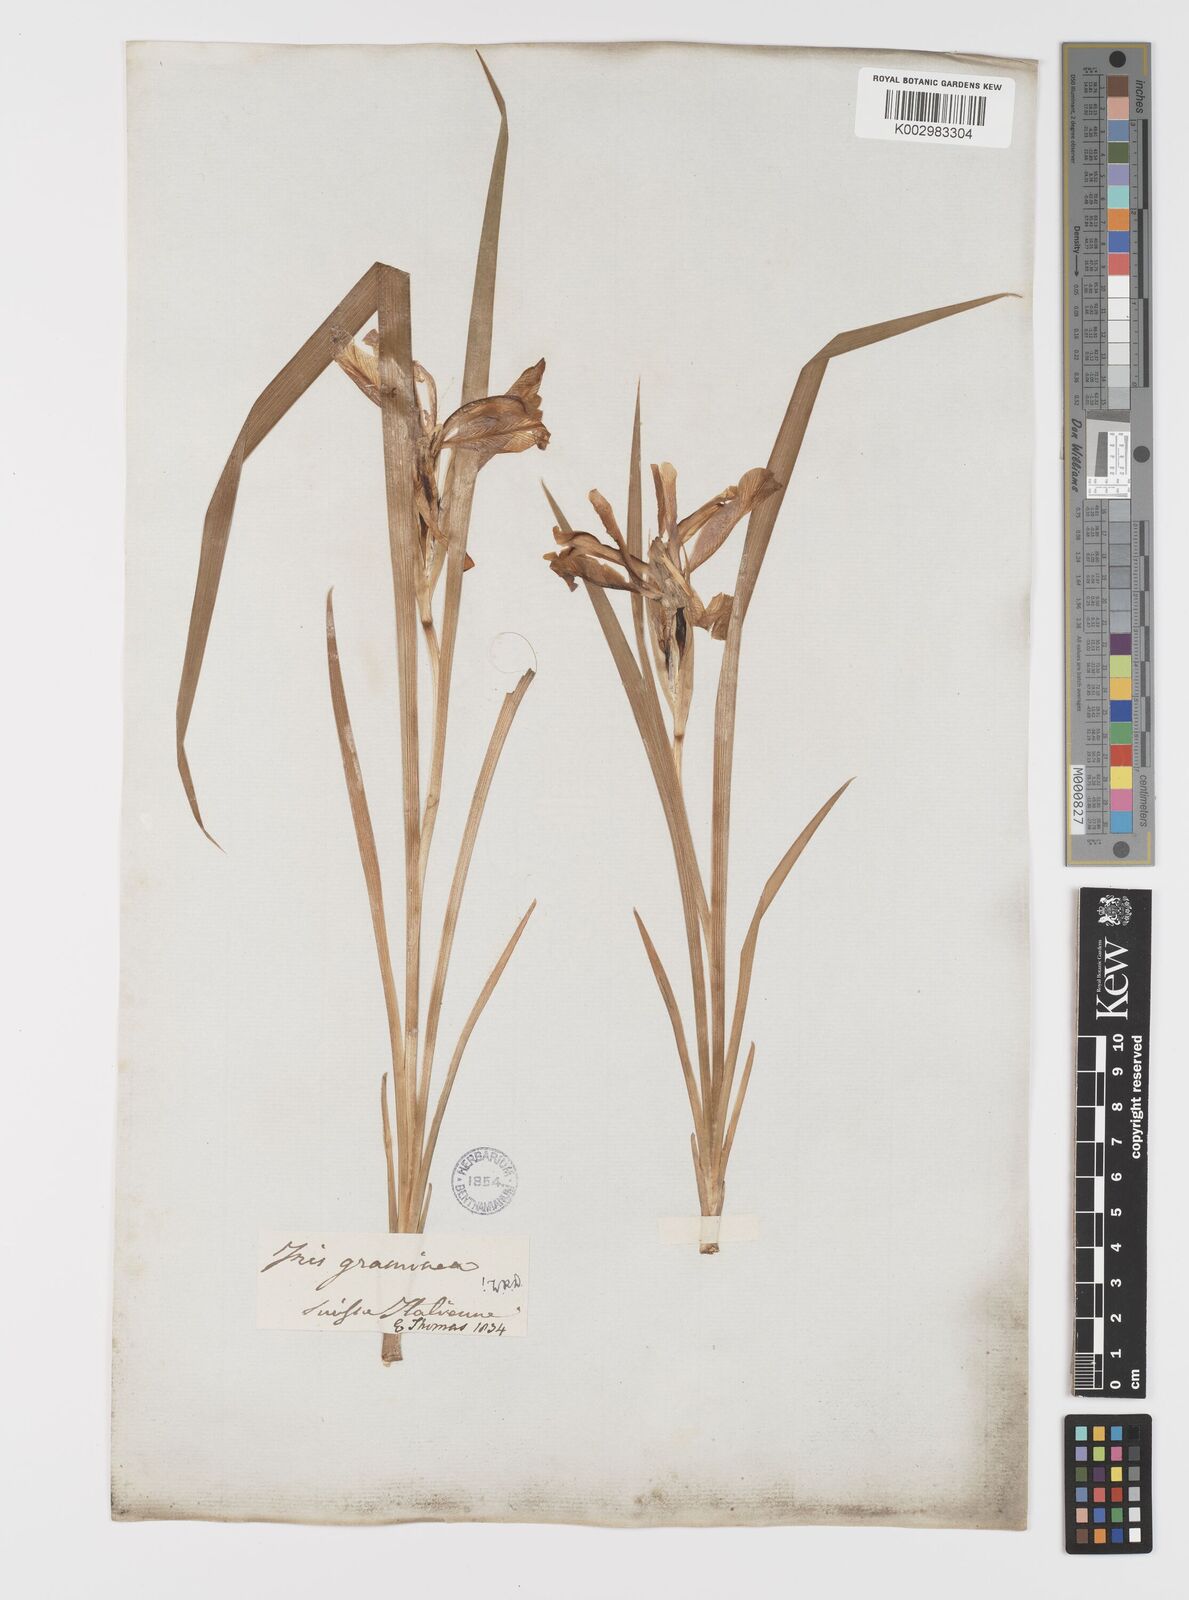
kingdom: Plantae
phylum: Tracheophyta
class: Liliopsida
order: Asparagales
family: Iridaceae
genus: Iris
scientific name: Iris graminea
